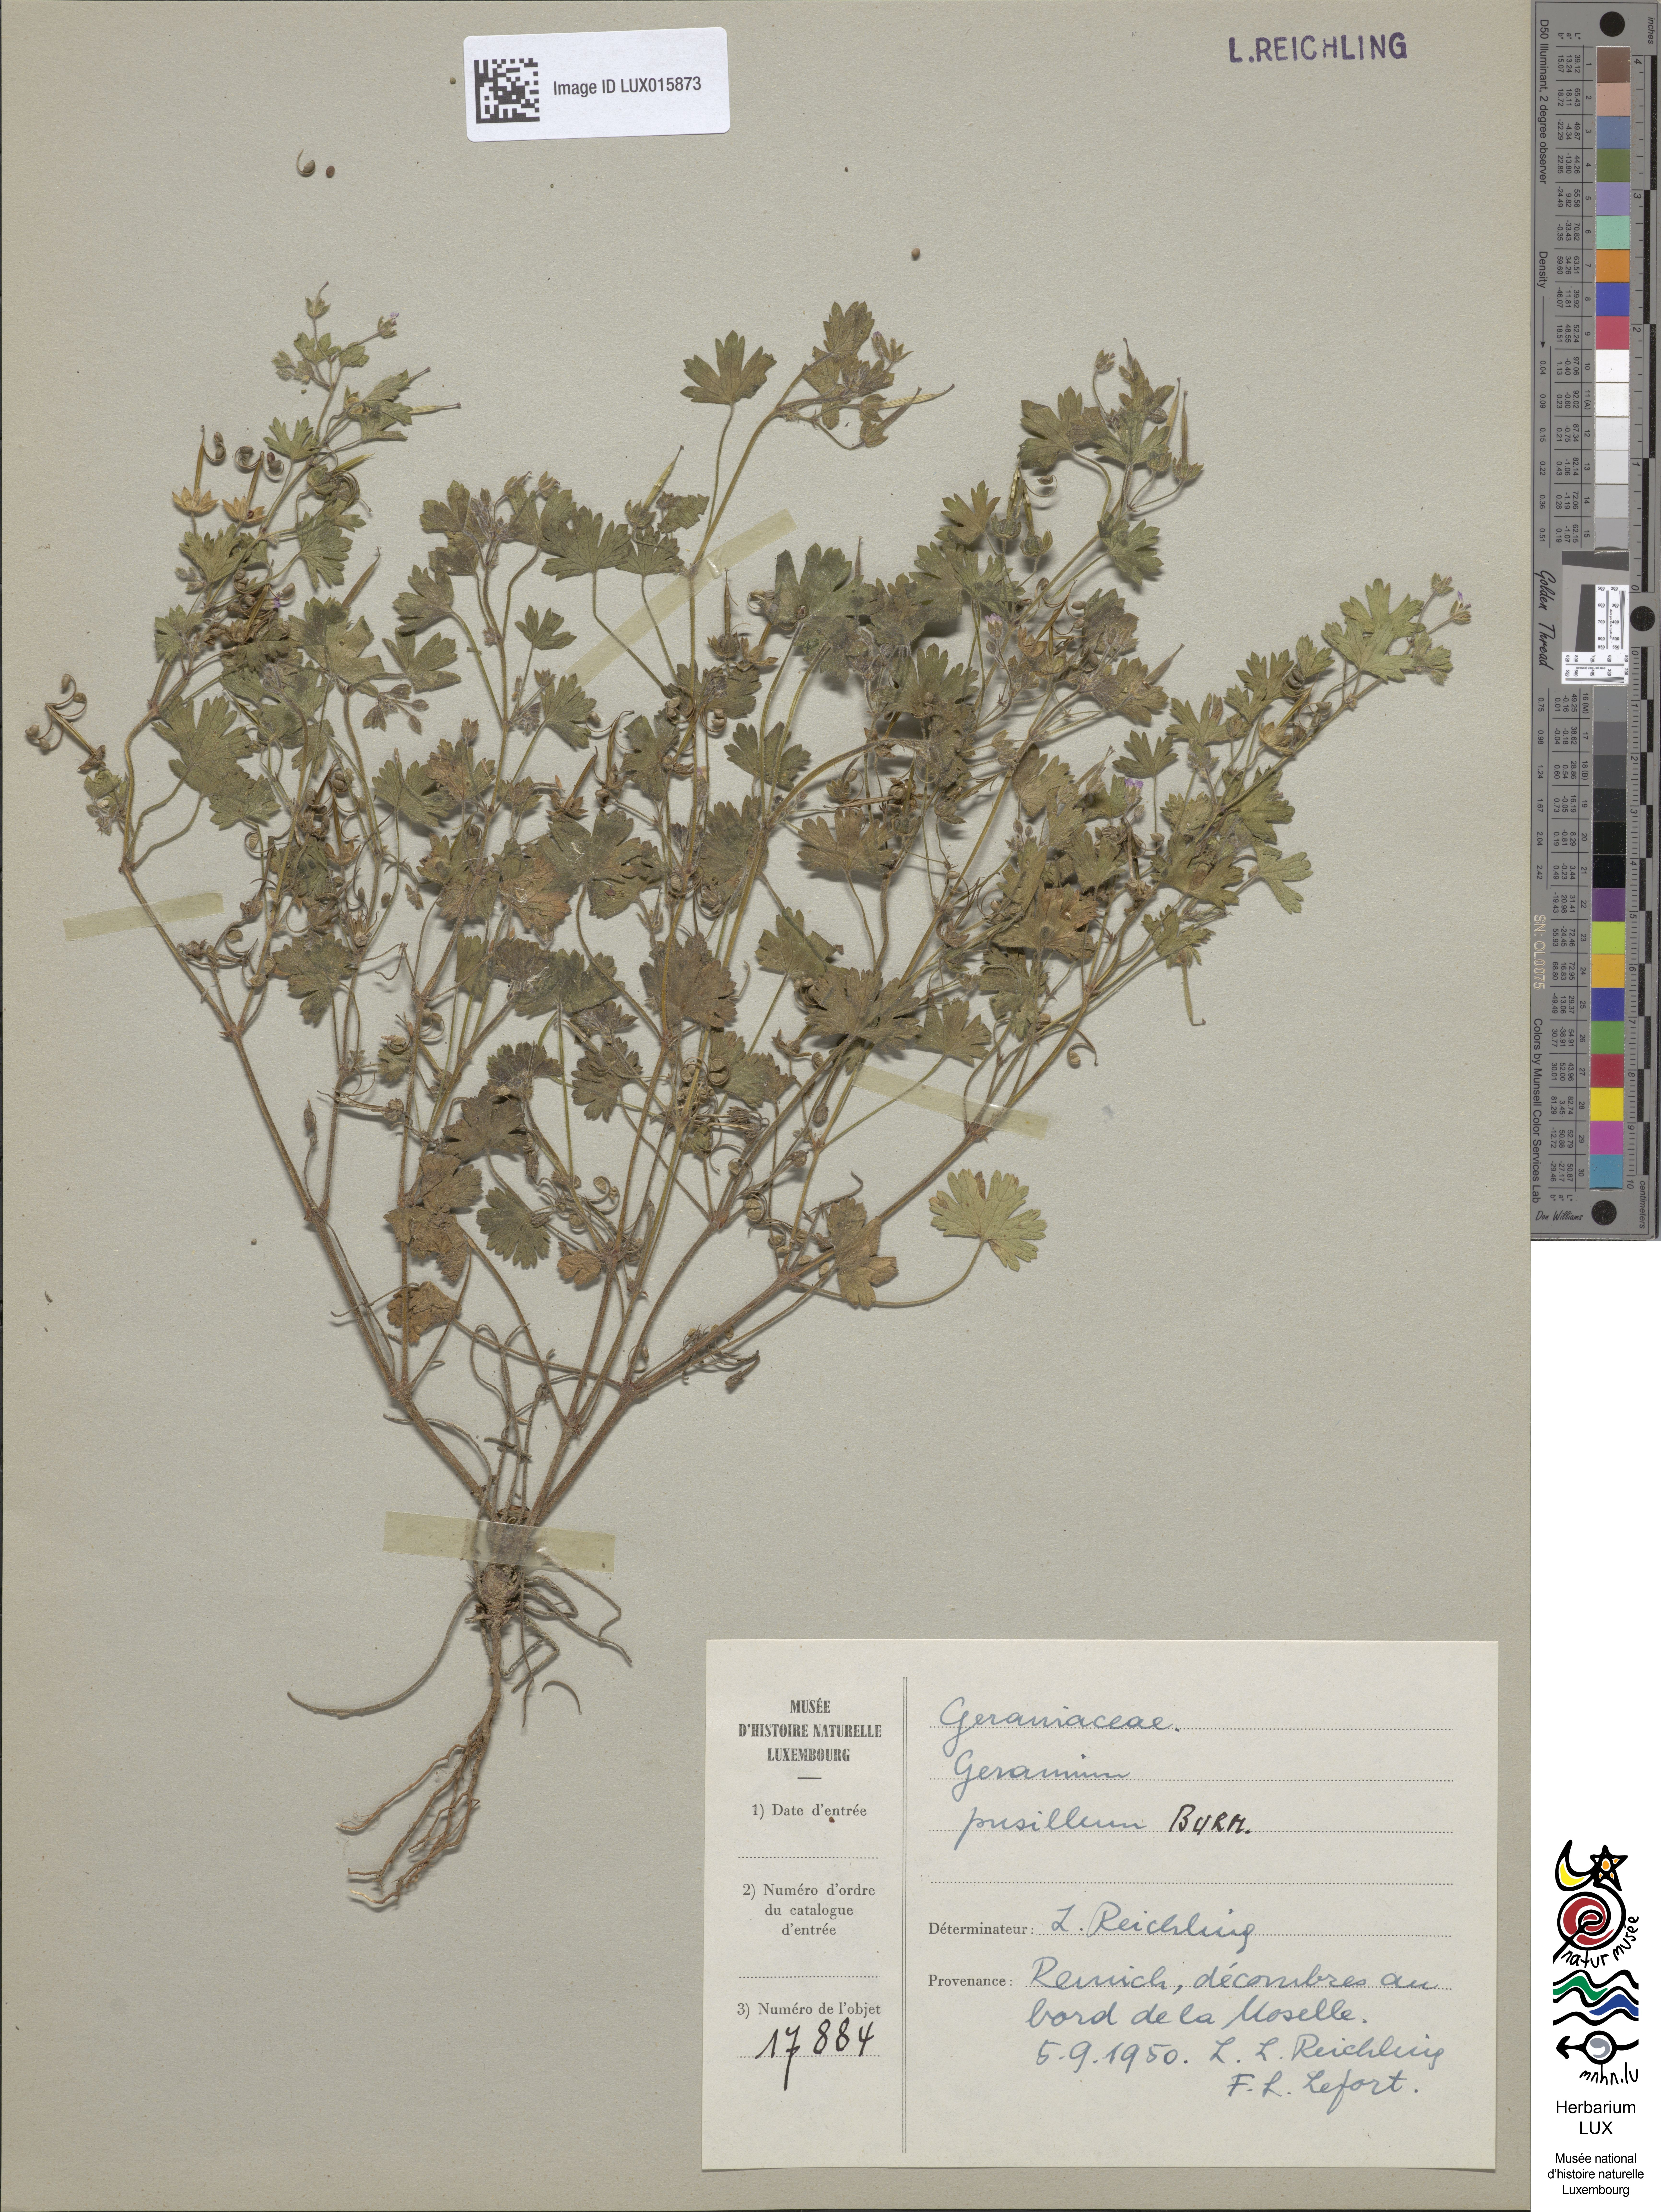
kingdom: Plantae
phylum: Tracheophyta
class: Magnoliopsida
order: Geraniales
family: Geraniaceae
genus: Geranium
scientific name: Geranium pusillum
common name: Small geranium
